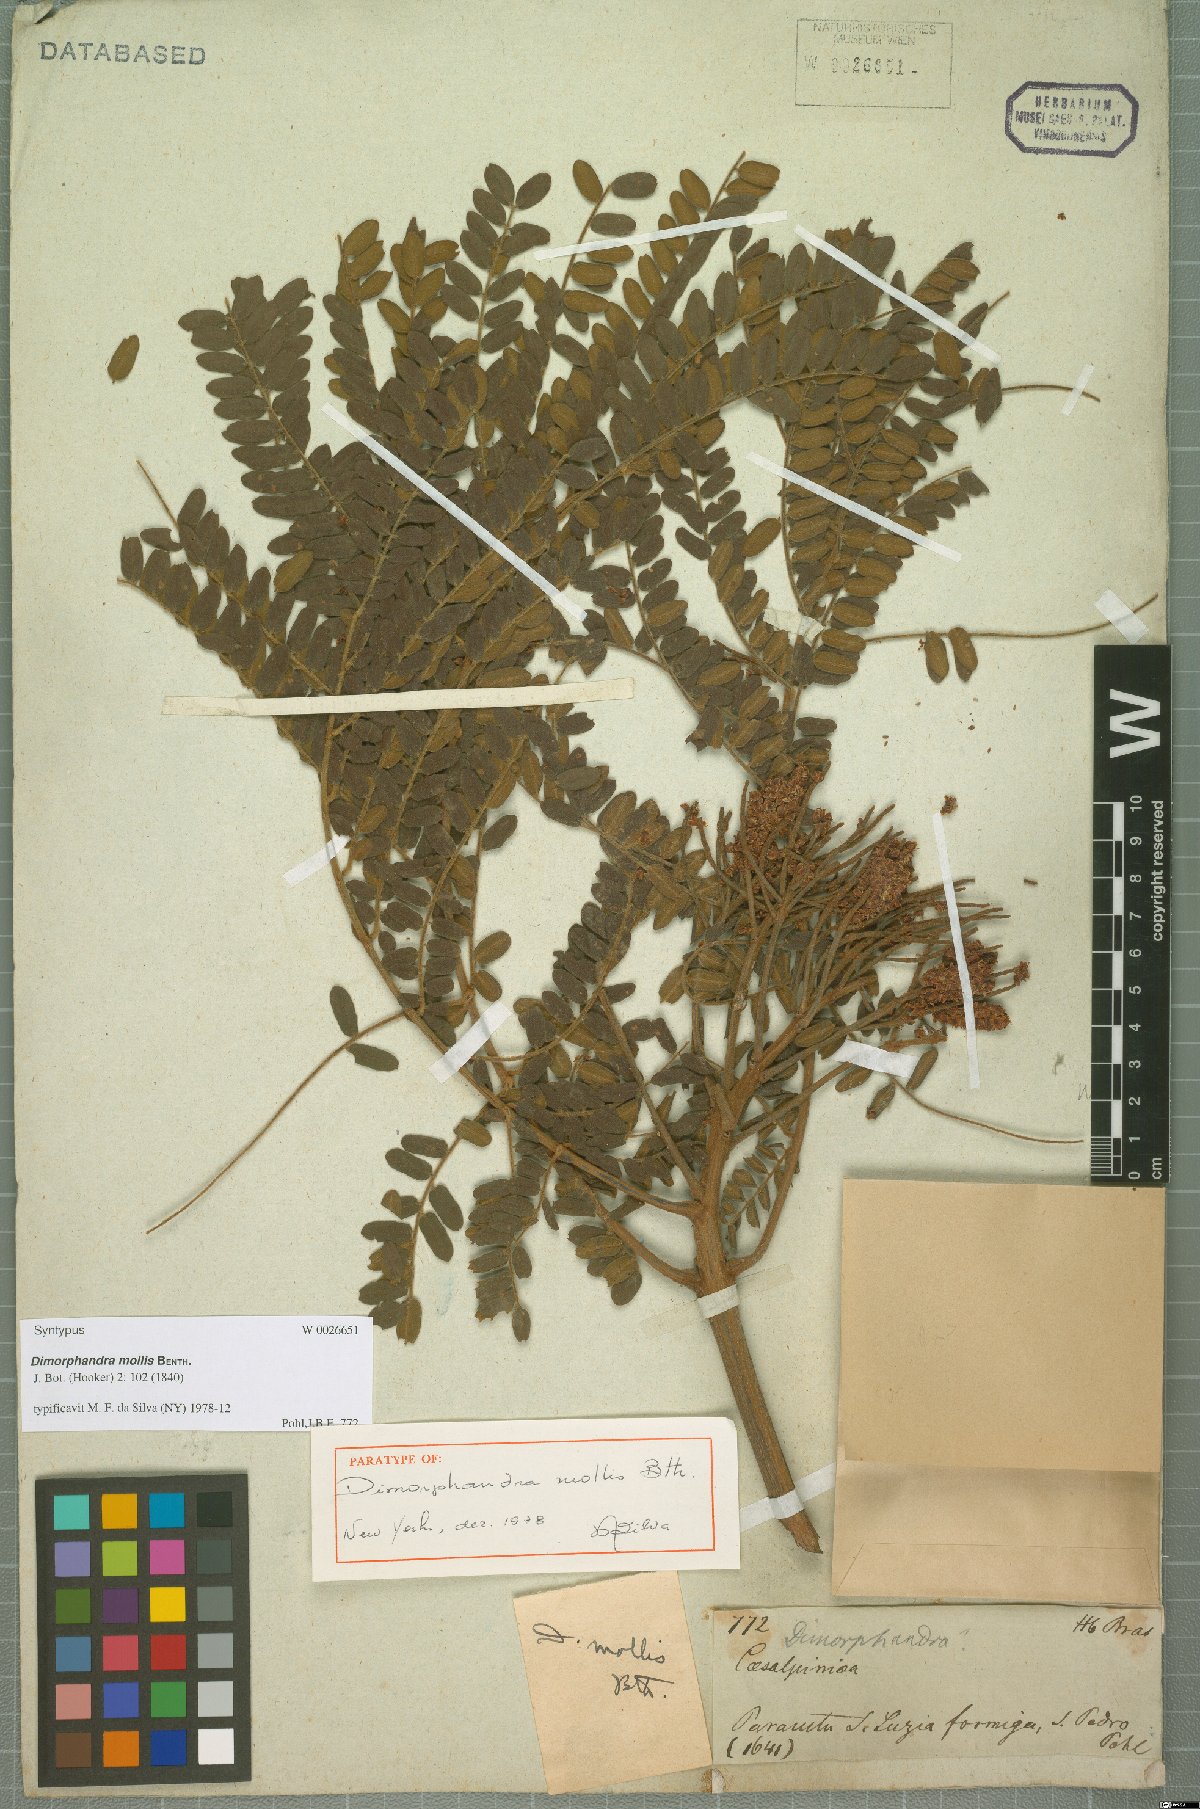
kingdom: Plantae
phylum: Tracheophyta
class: Magnoliopsida
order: Fabales
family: Fabaceae
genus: Dimorphandra
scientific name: Dimorphandra mollis
